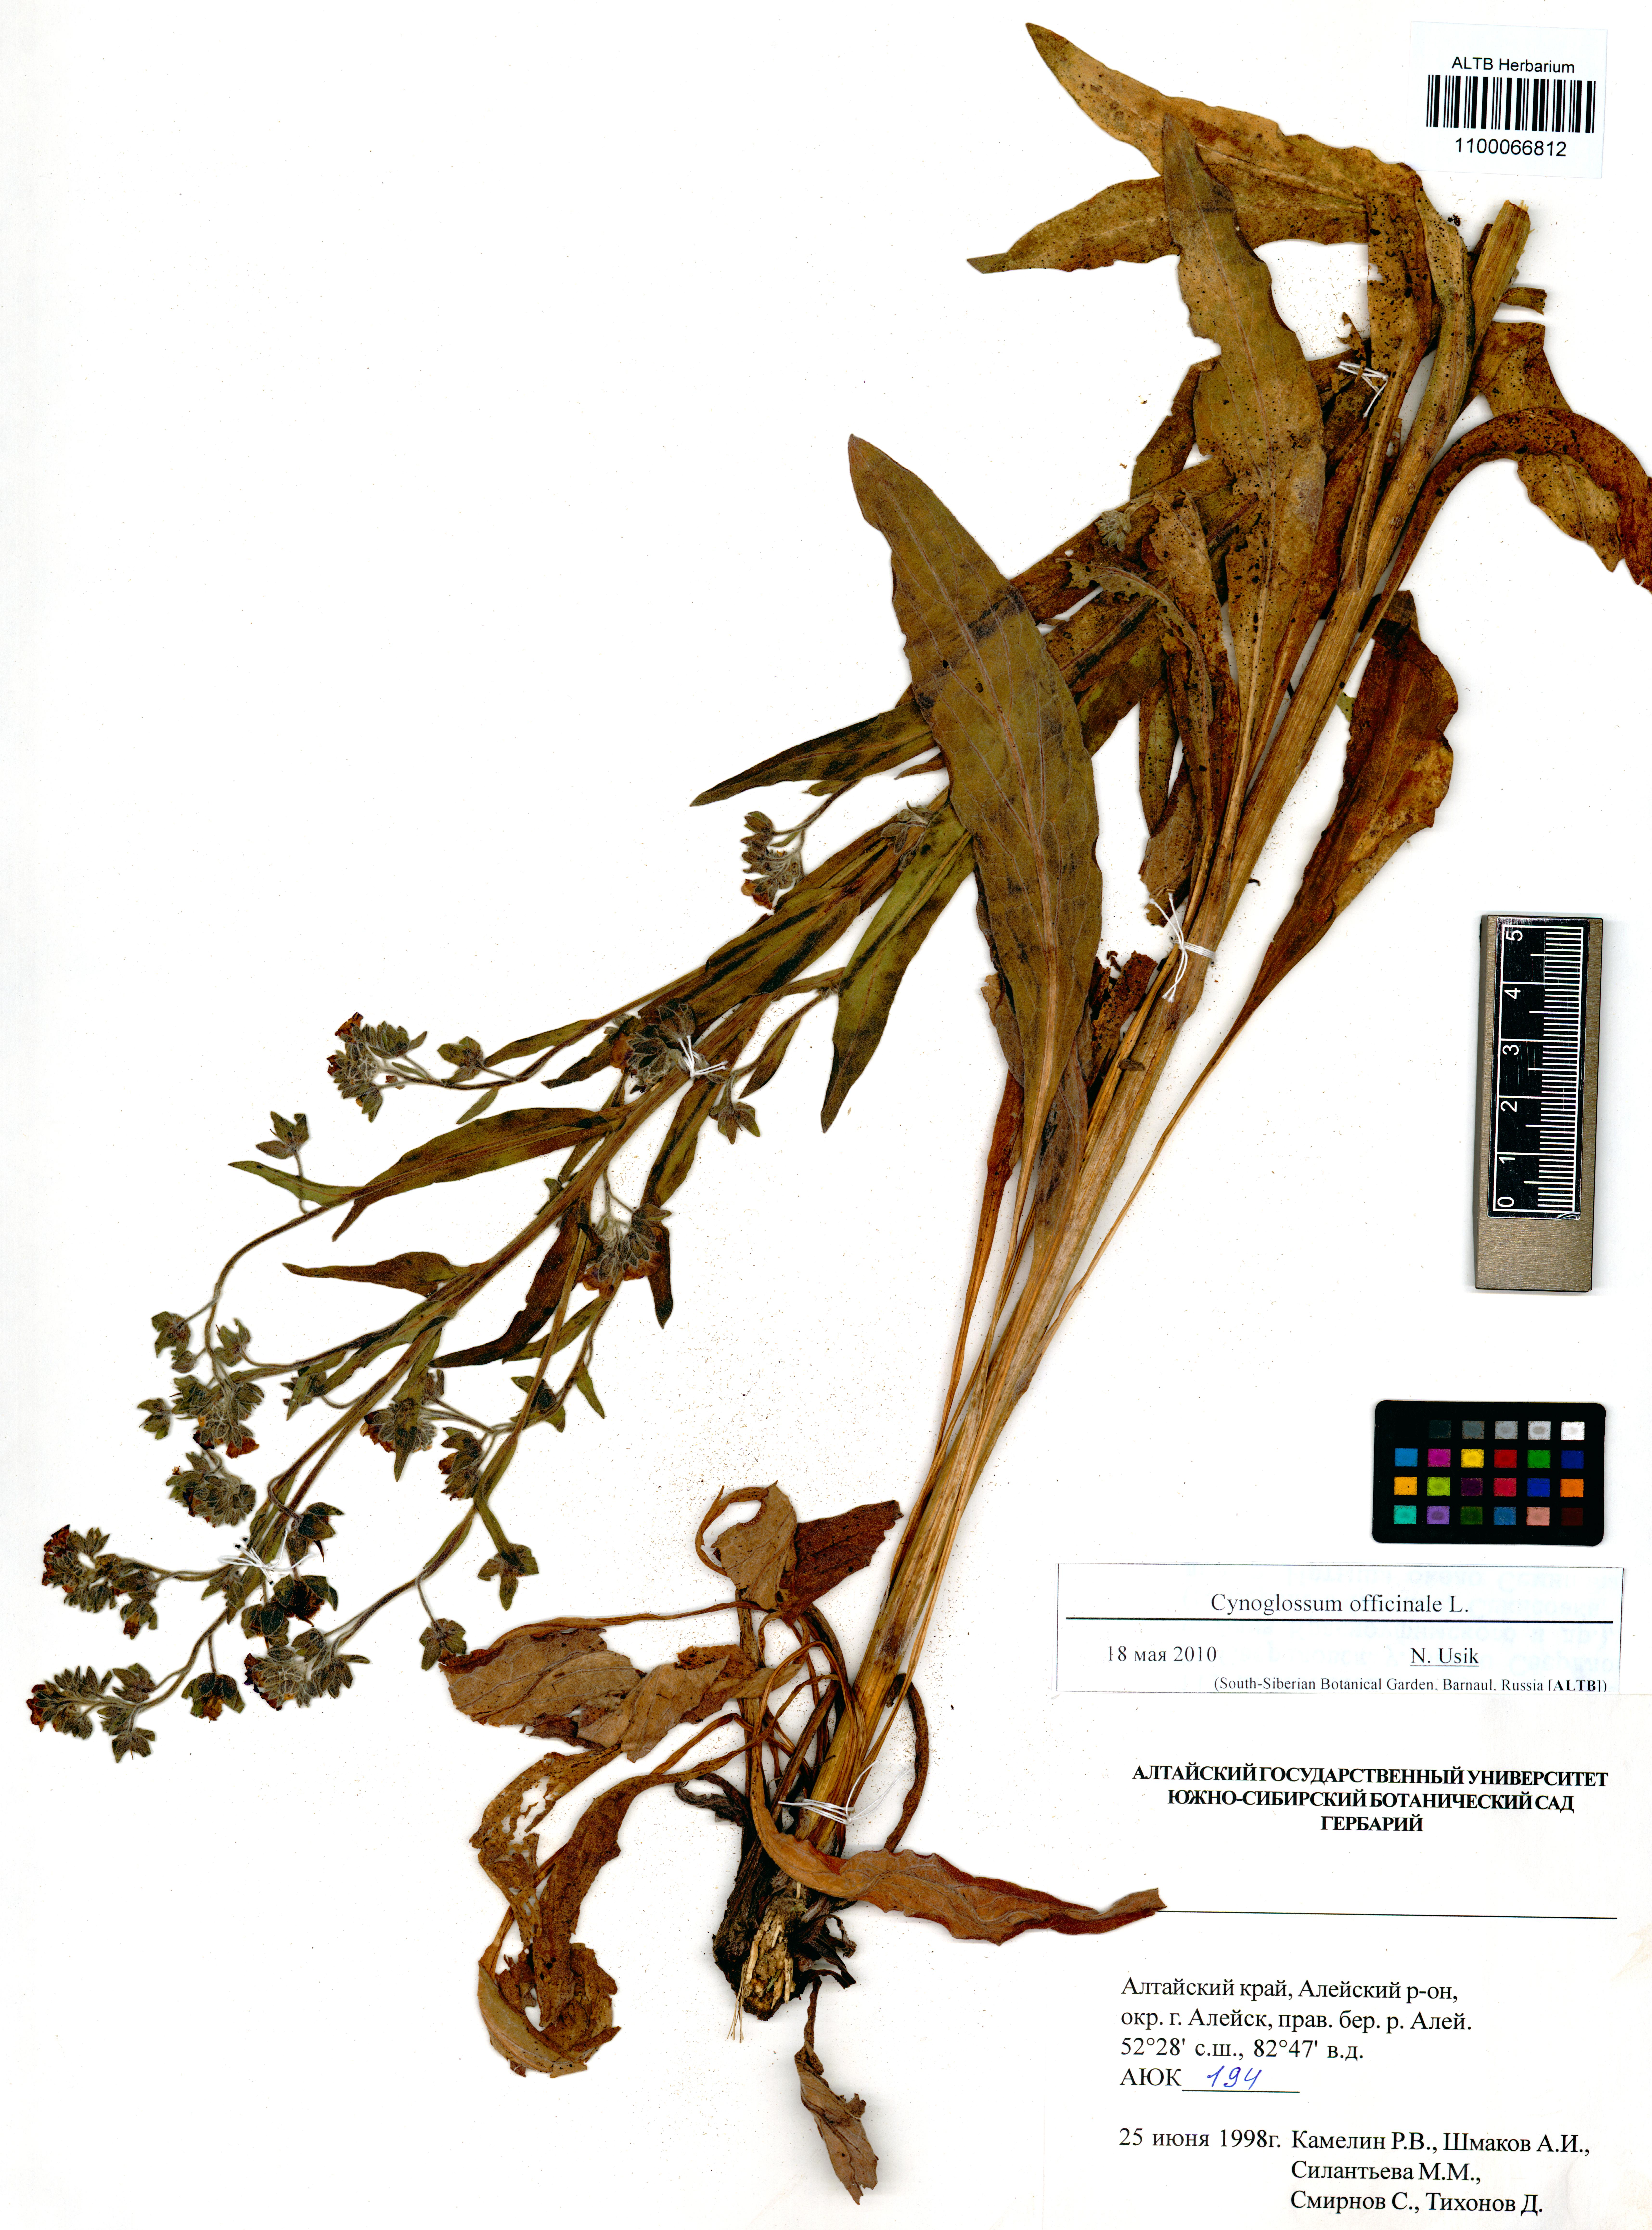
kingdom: Plantae
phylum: Tracheophyta
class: Magnoliopsida
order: Boraginales
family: Boraginaceae
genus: Cynoglossum
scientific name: Cynoglossum officinale
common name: Hound's-tongue
